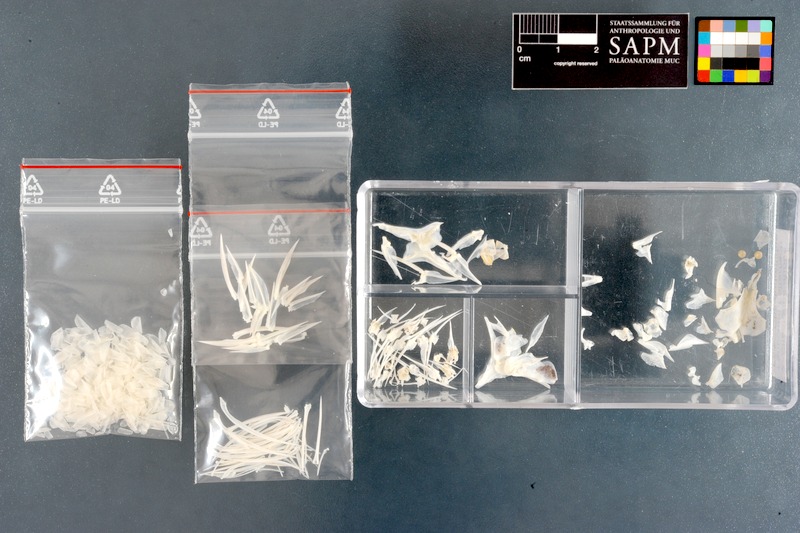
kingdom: Animalia
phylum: Chordata
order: Perciformes
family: Chaetodontidae
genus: Chaetodon
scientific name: Chaetodon auriga
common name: Threadfin butterflyfish
